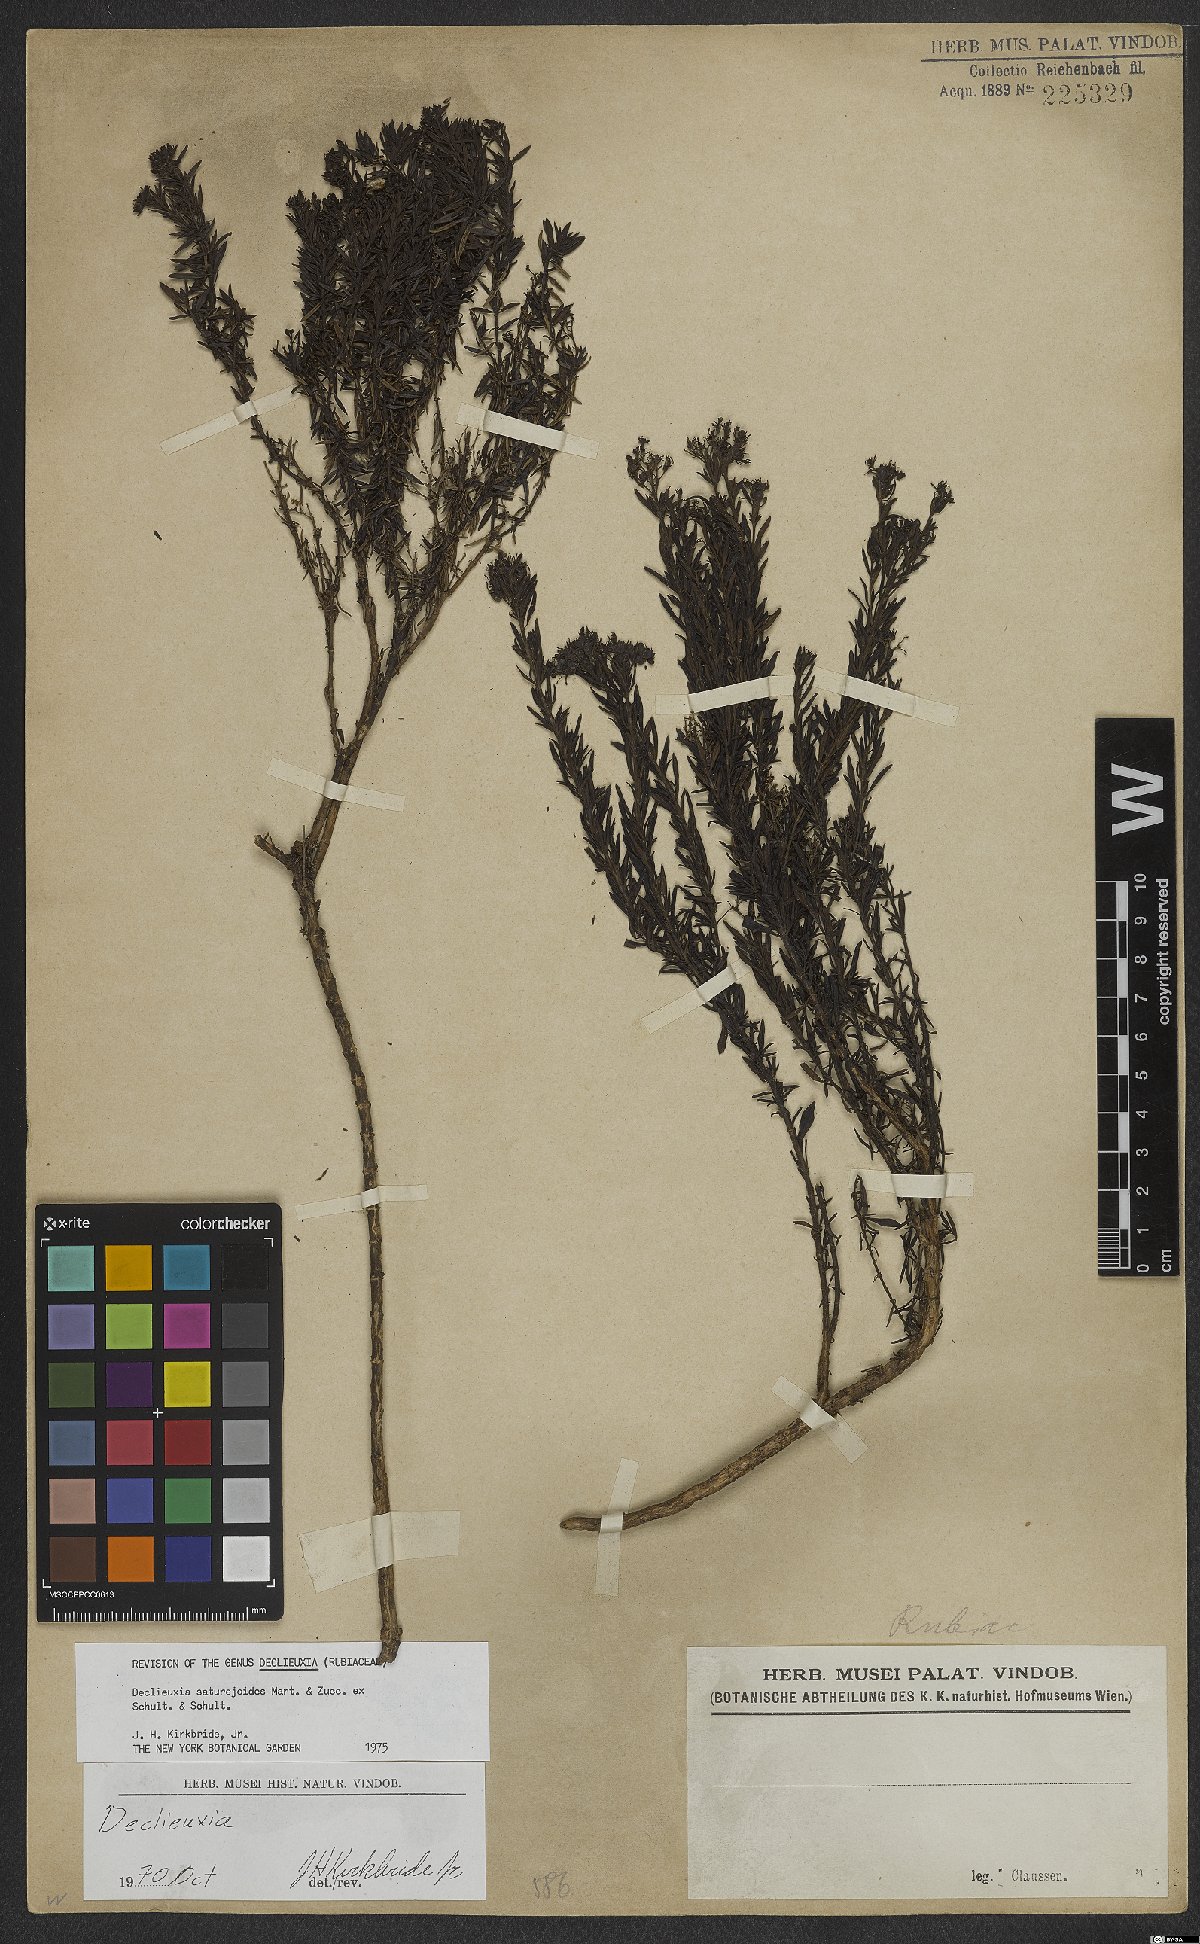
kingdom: Plantae
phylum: Tracheophyta
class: Magnoliopsida
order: Gentianales
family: Rubiaceae
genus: Declieuxia
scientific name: Declieuxia saturejoides
